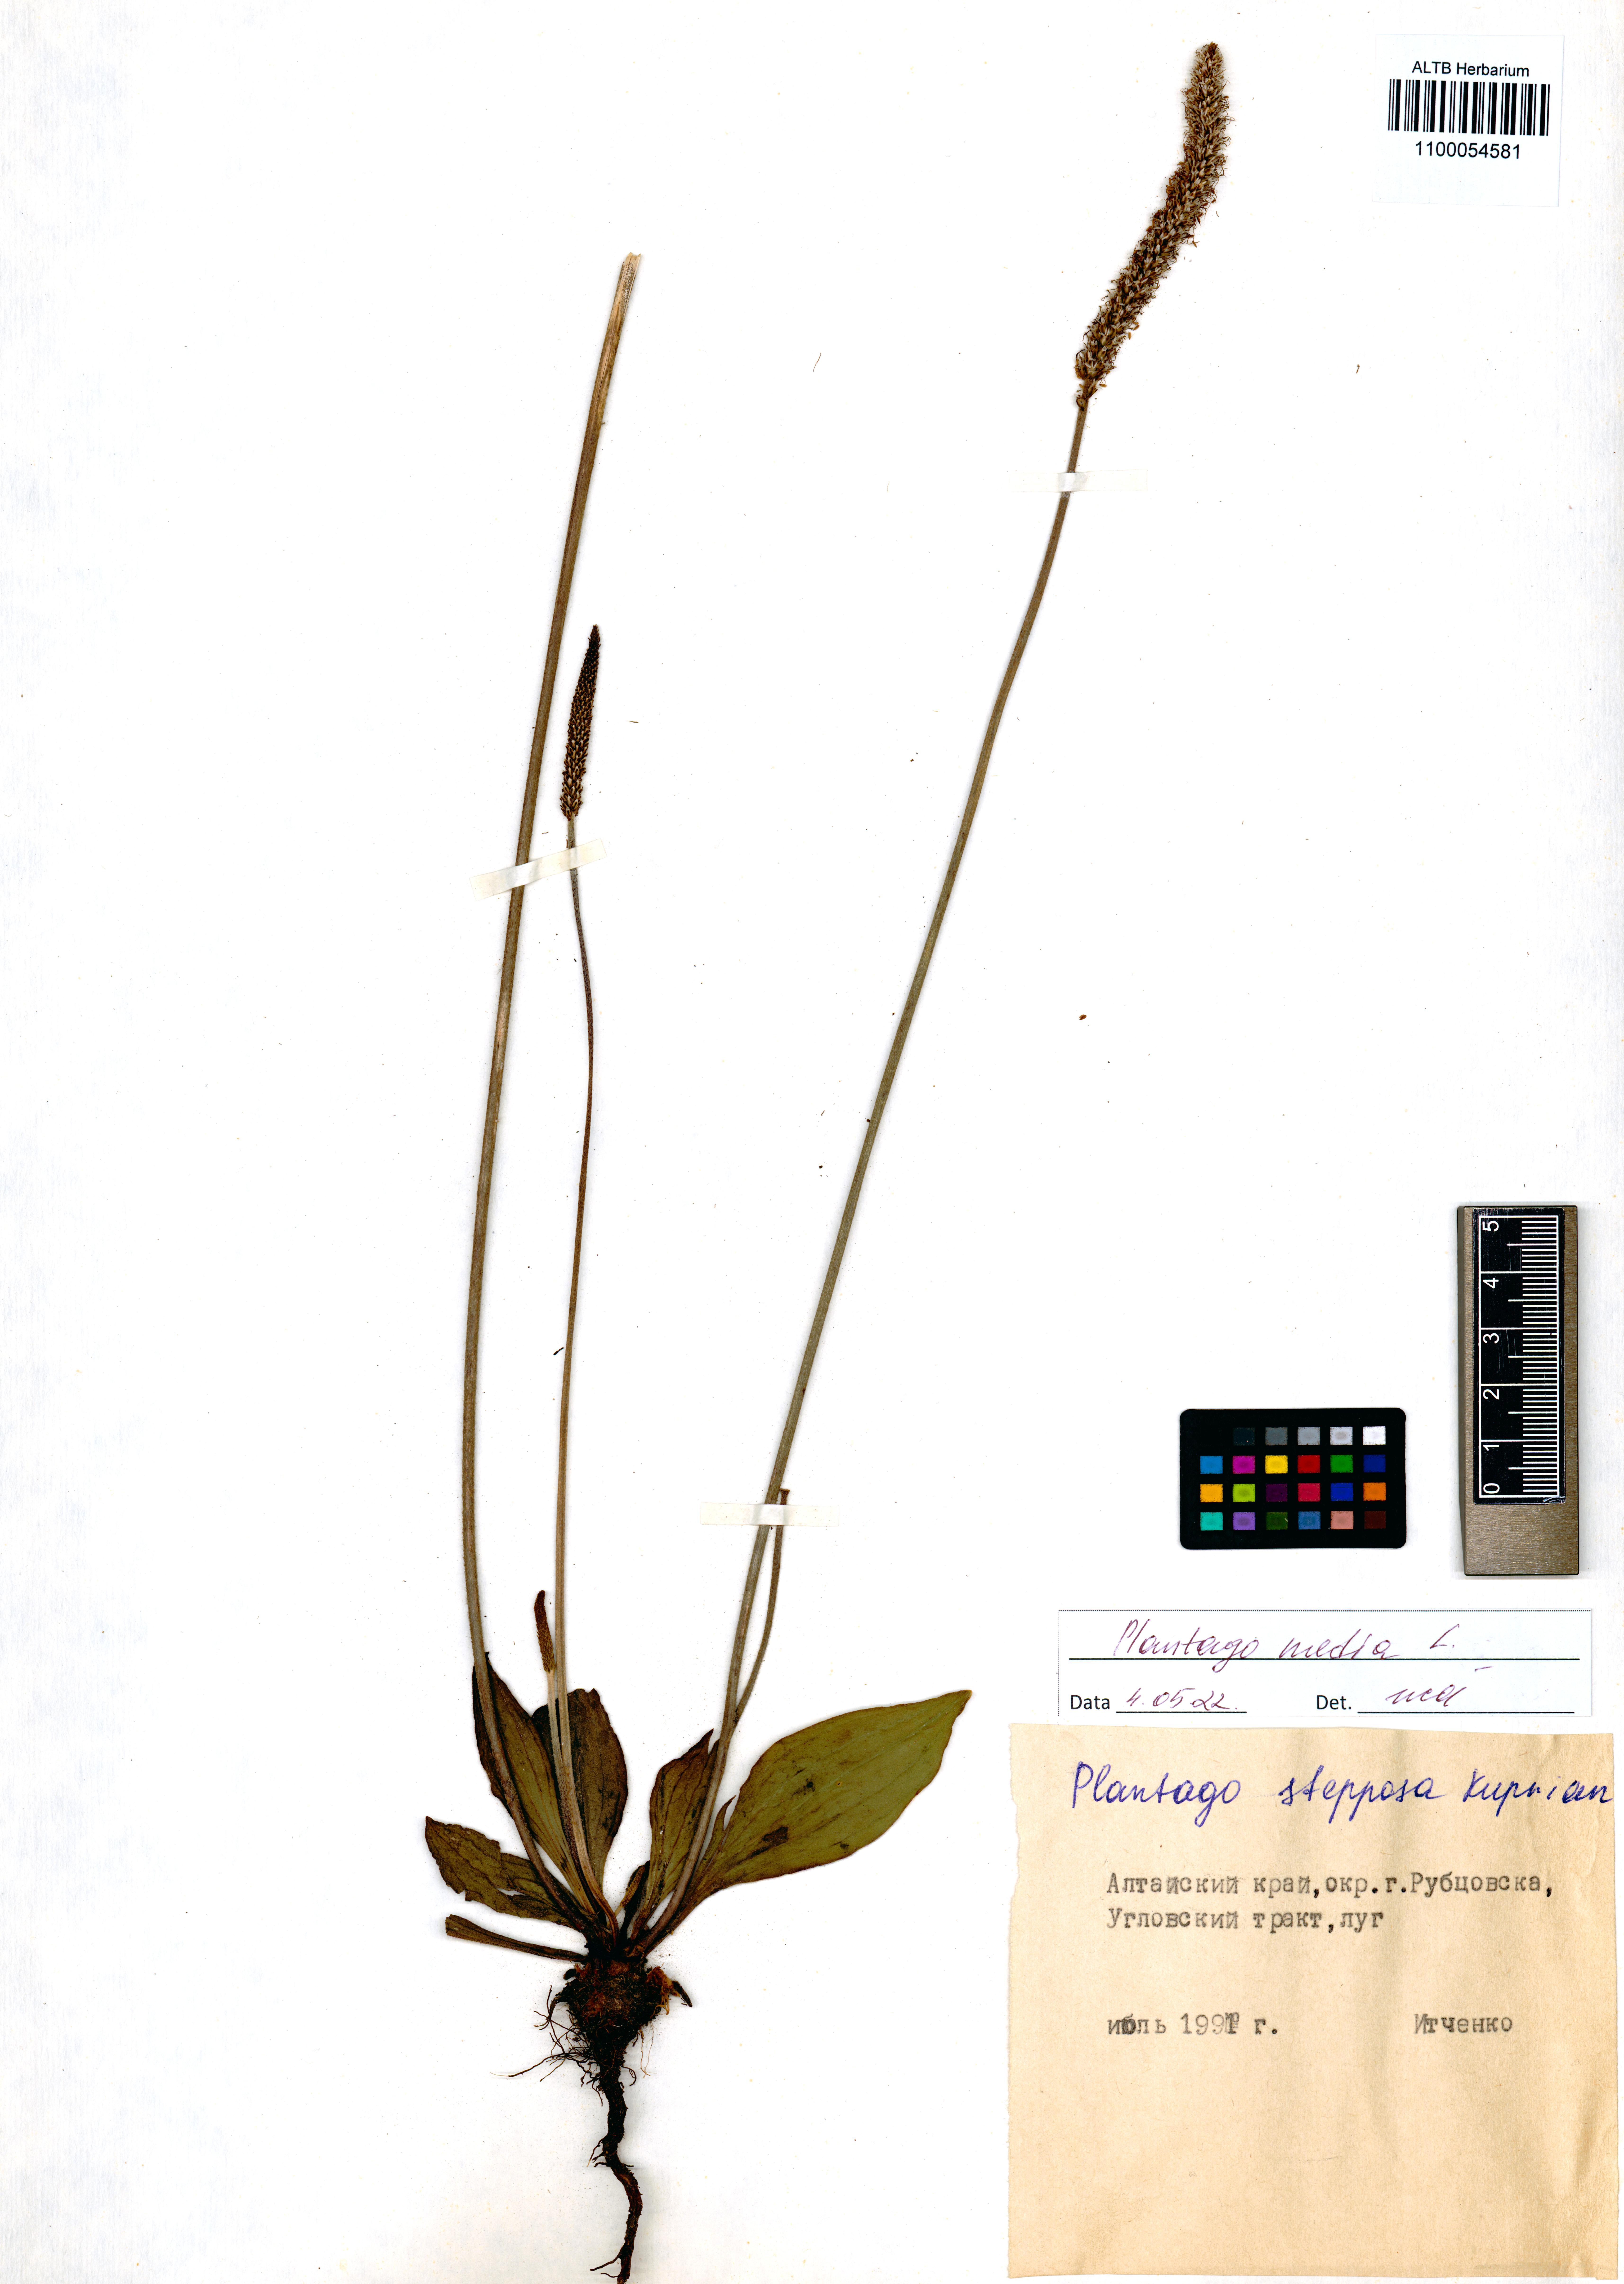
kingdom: Plantae
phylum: Tracheophyta
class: Magnoliopsida
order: Lamiales
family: Plantaginaceae
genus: Plantago
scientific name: Plantago media
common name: Hoary plantain
